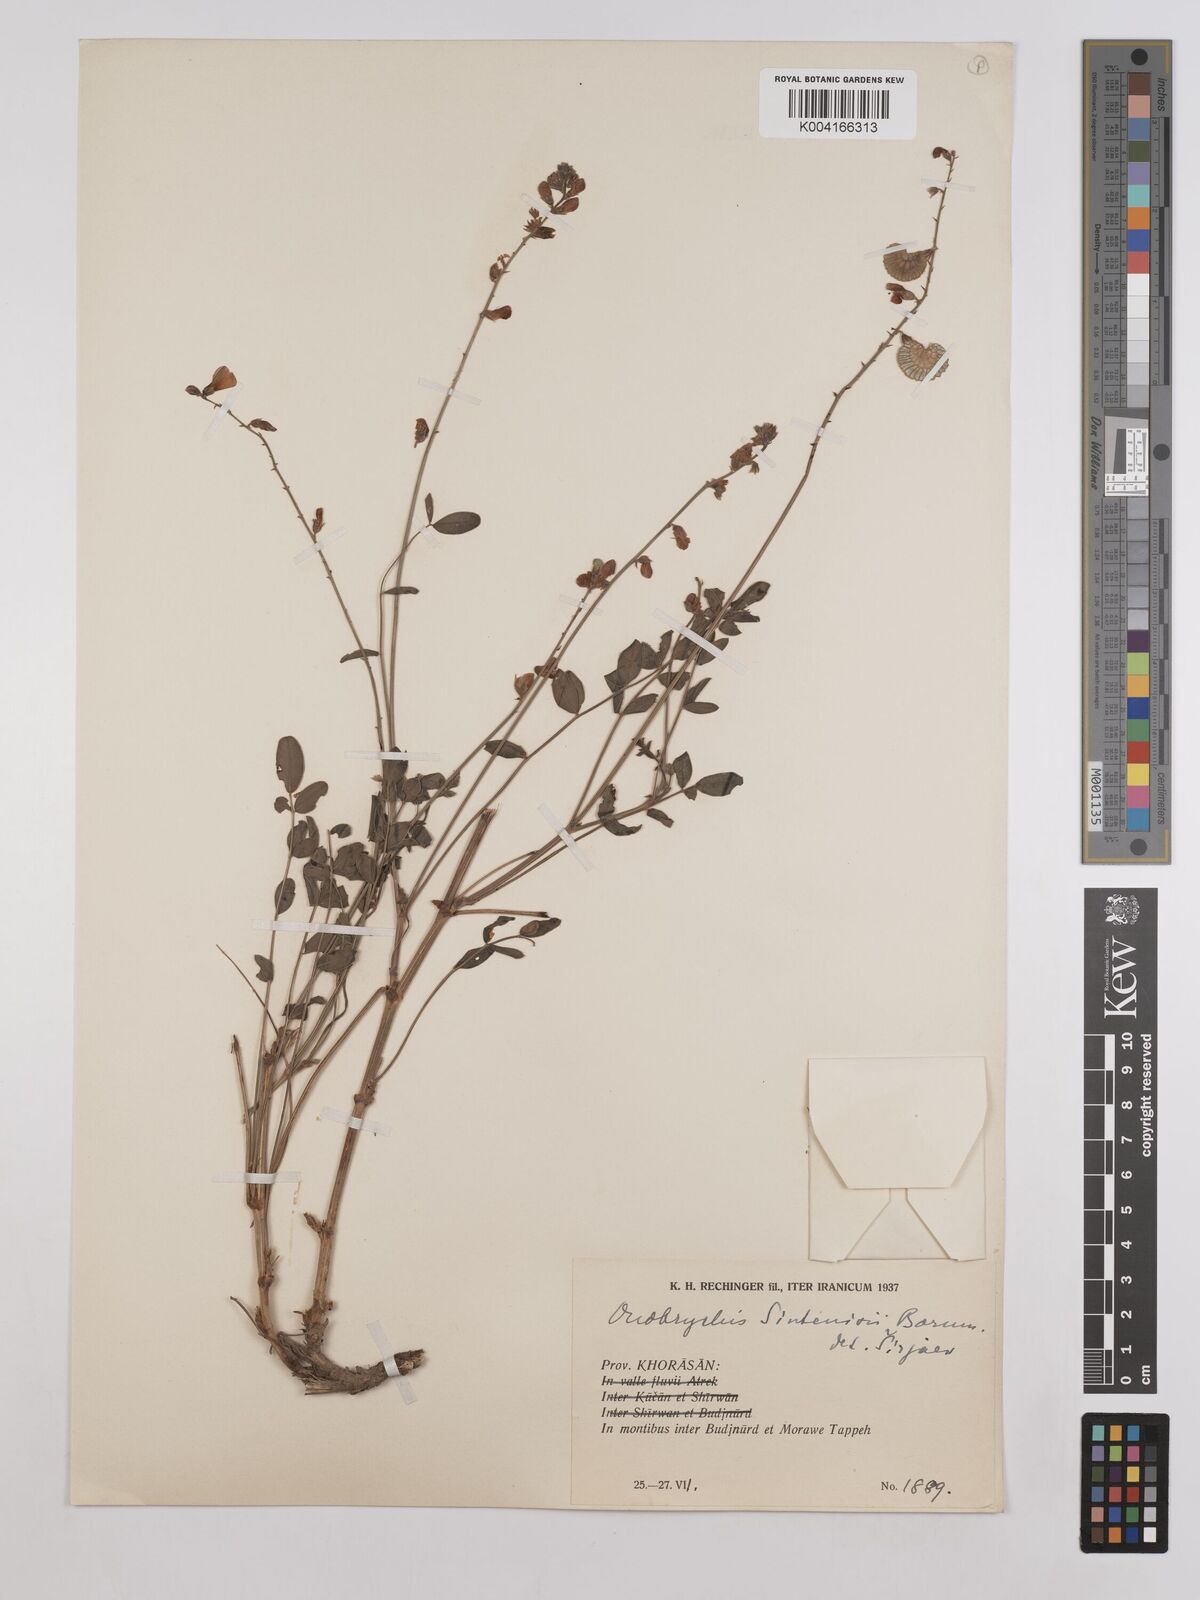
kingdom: Plantae
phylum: Tracheophyta
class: Magnoliopsida
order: Fabales
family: Fabaceae
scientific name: Fabaceae
